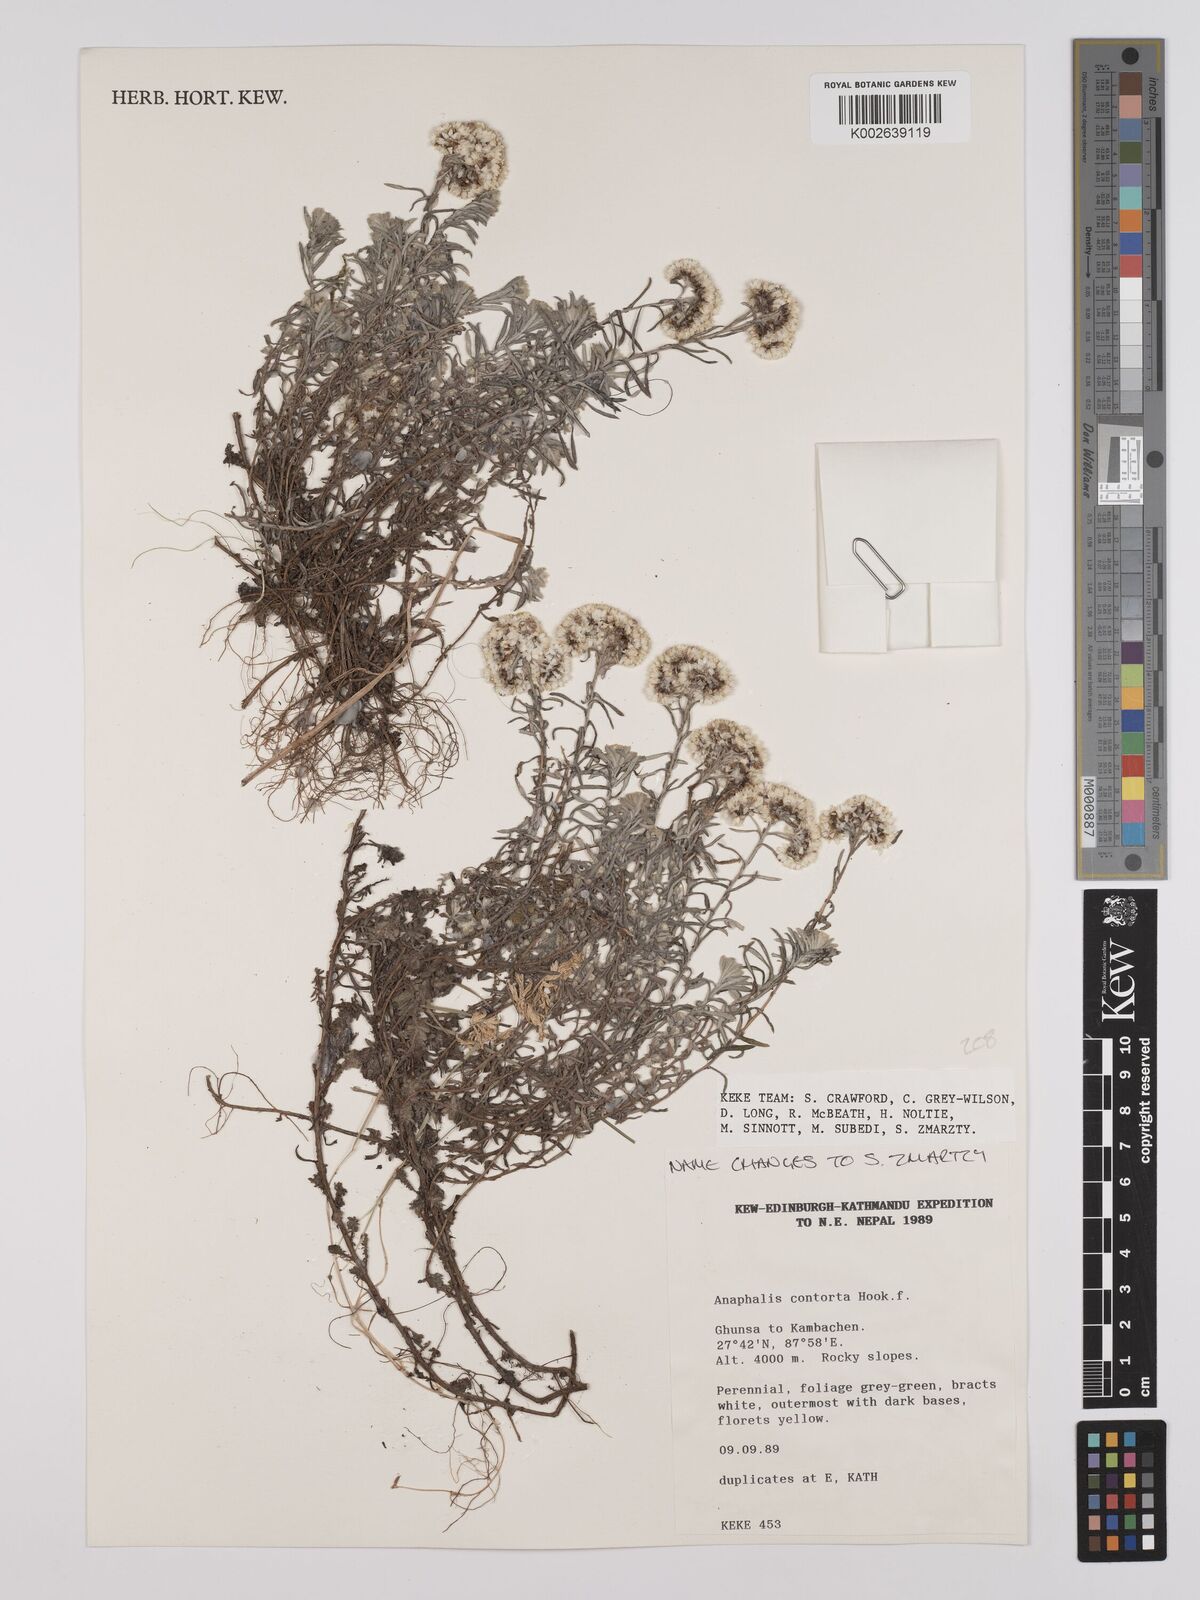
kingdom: Plantae
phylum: Tracheophyta
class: Magnoliopsida
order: Asterales
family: Asteraceae
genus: Anaphalis
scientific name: Anaphalis contorta
